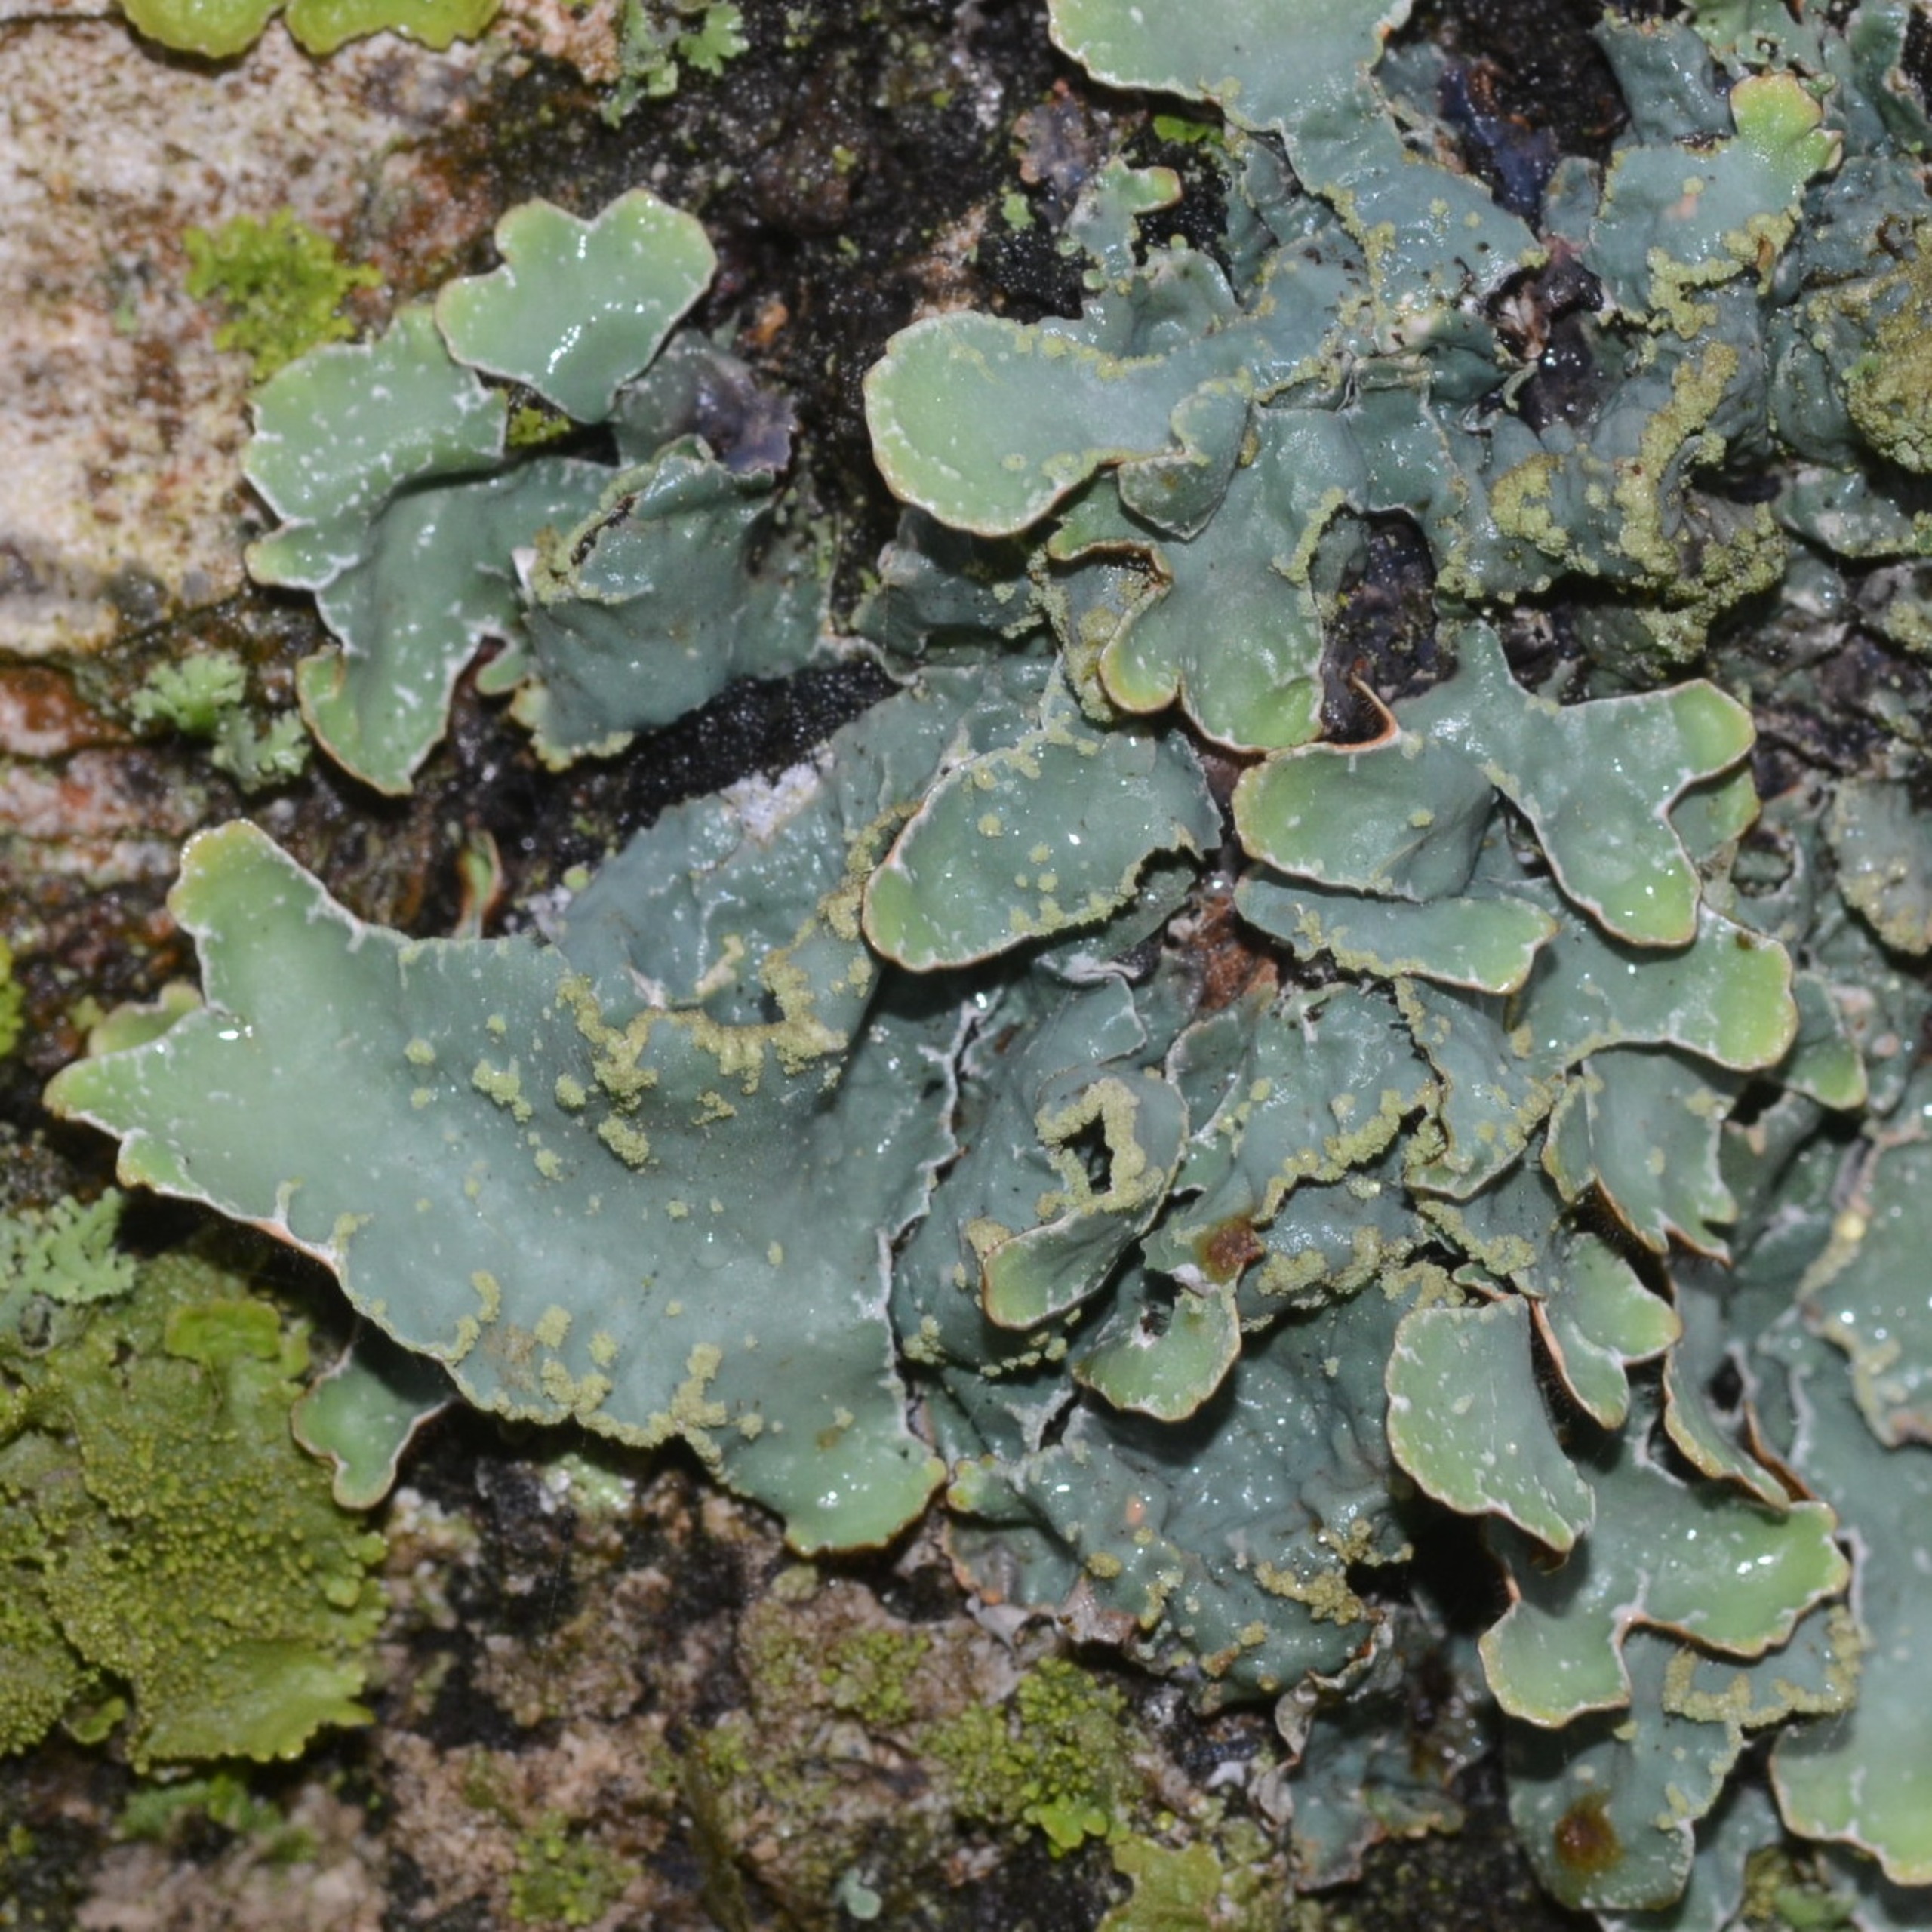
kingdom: Fungi
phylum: Ascomycota
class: Lecanoromycetes
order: Lecanorales
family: Parmeliaceae
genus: Parmelia
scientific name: Parmelia sulcata
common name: Rynket skållav
